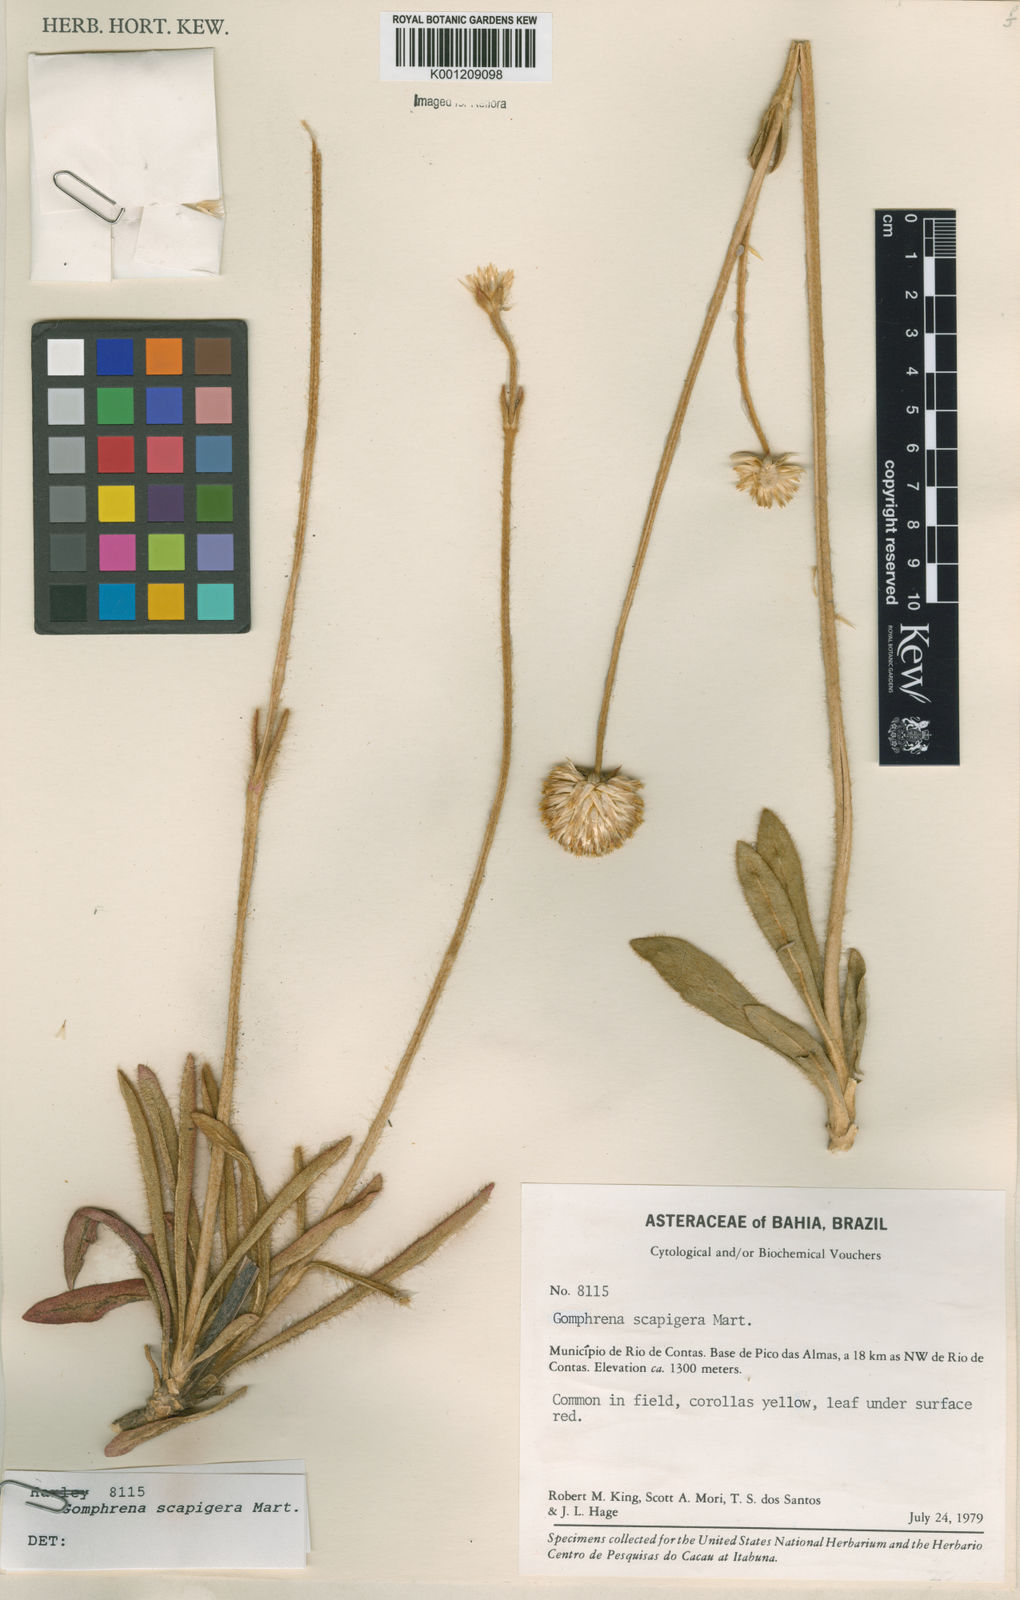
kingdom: Plantae
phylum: Tracheophyta
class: Magnoliopsida
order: Caryophyllales
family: Amaranthaceae
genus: Gomphrena
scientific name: Gomphrena scapigera
